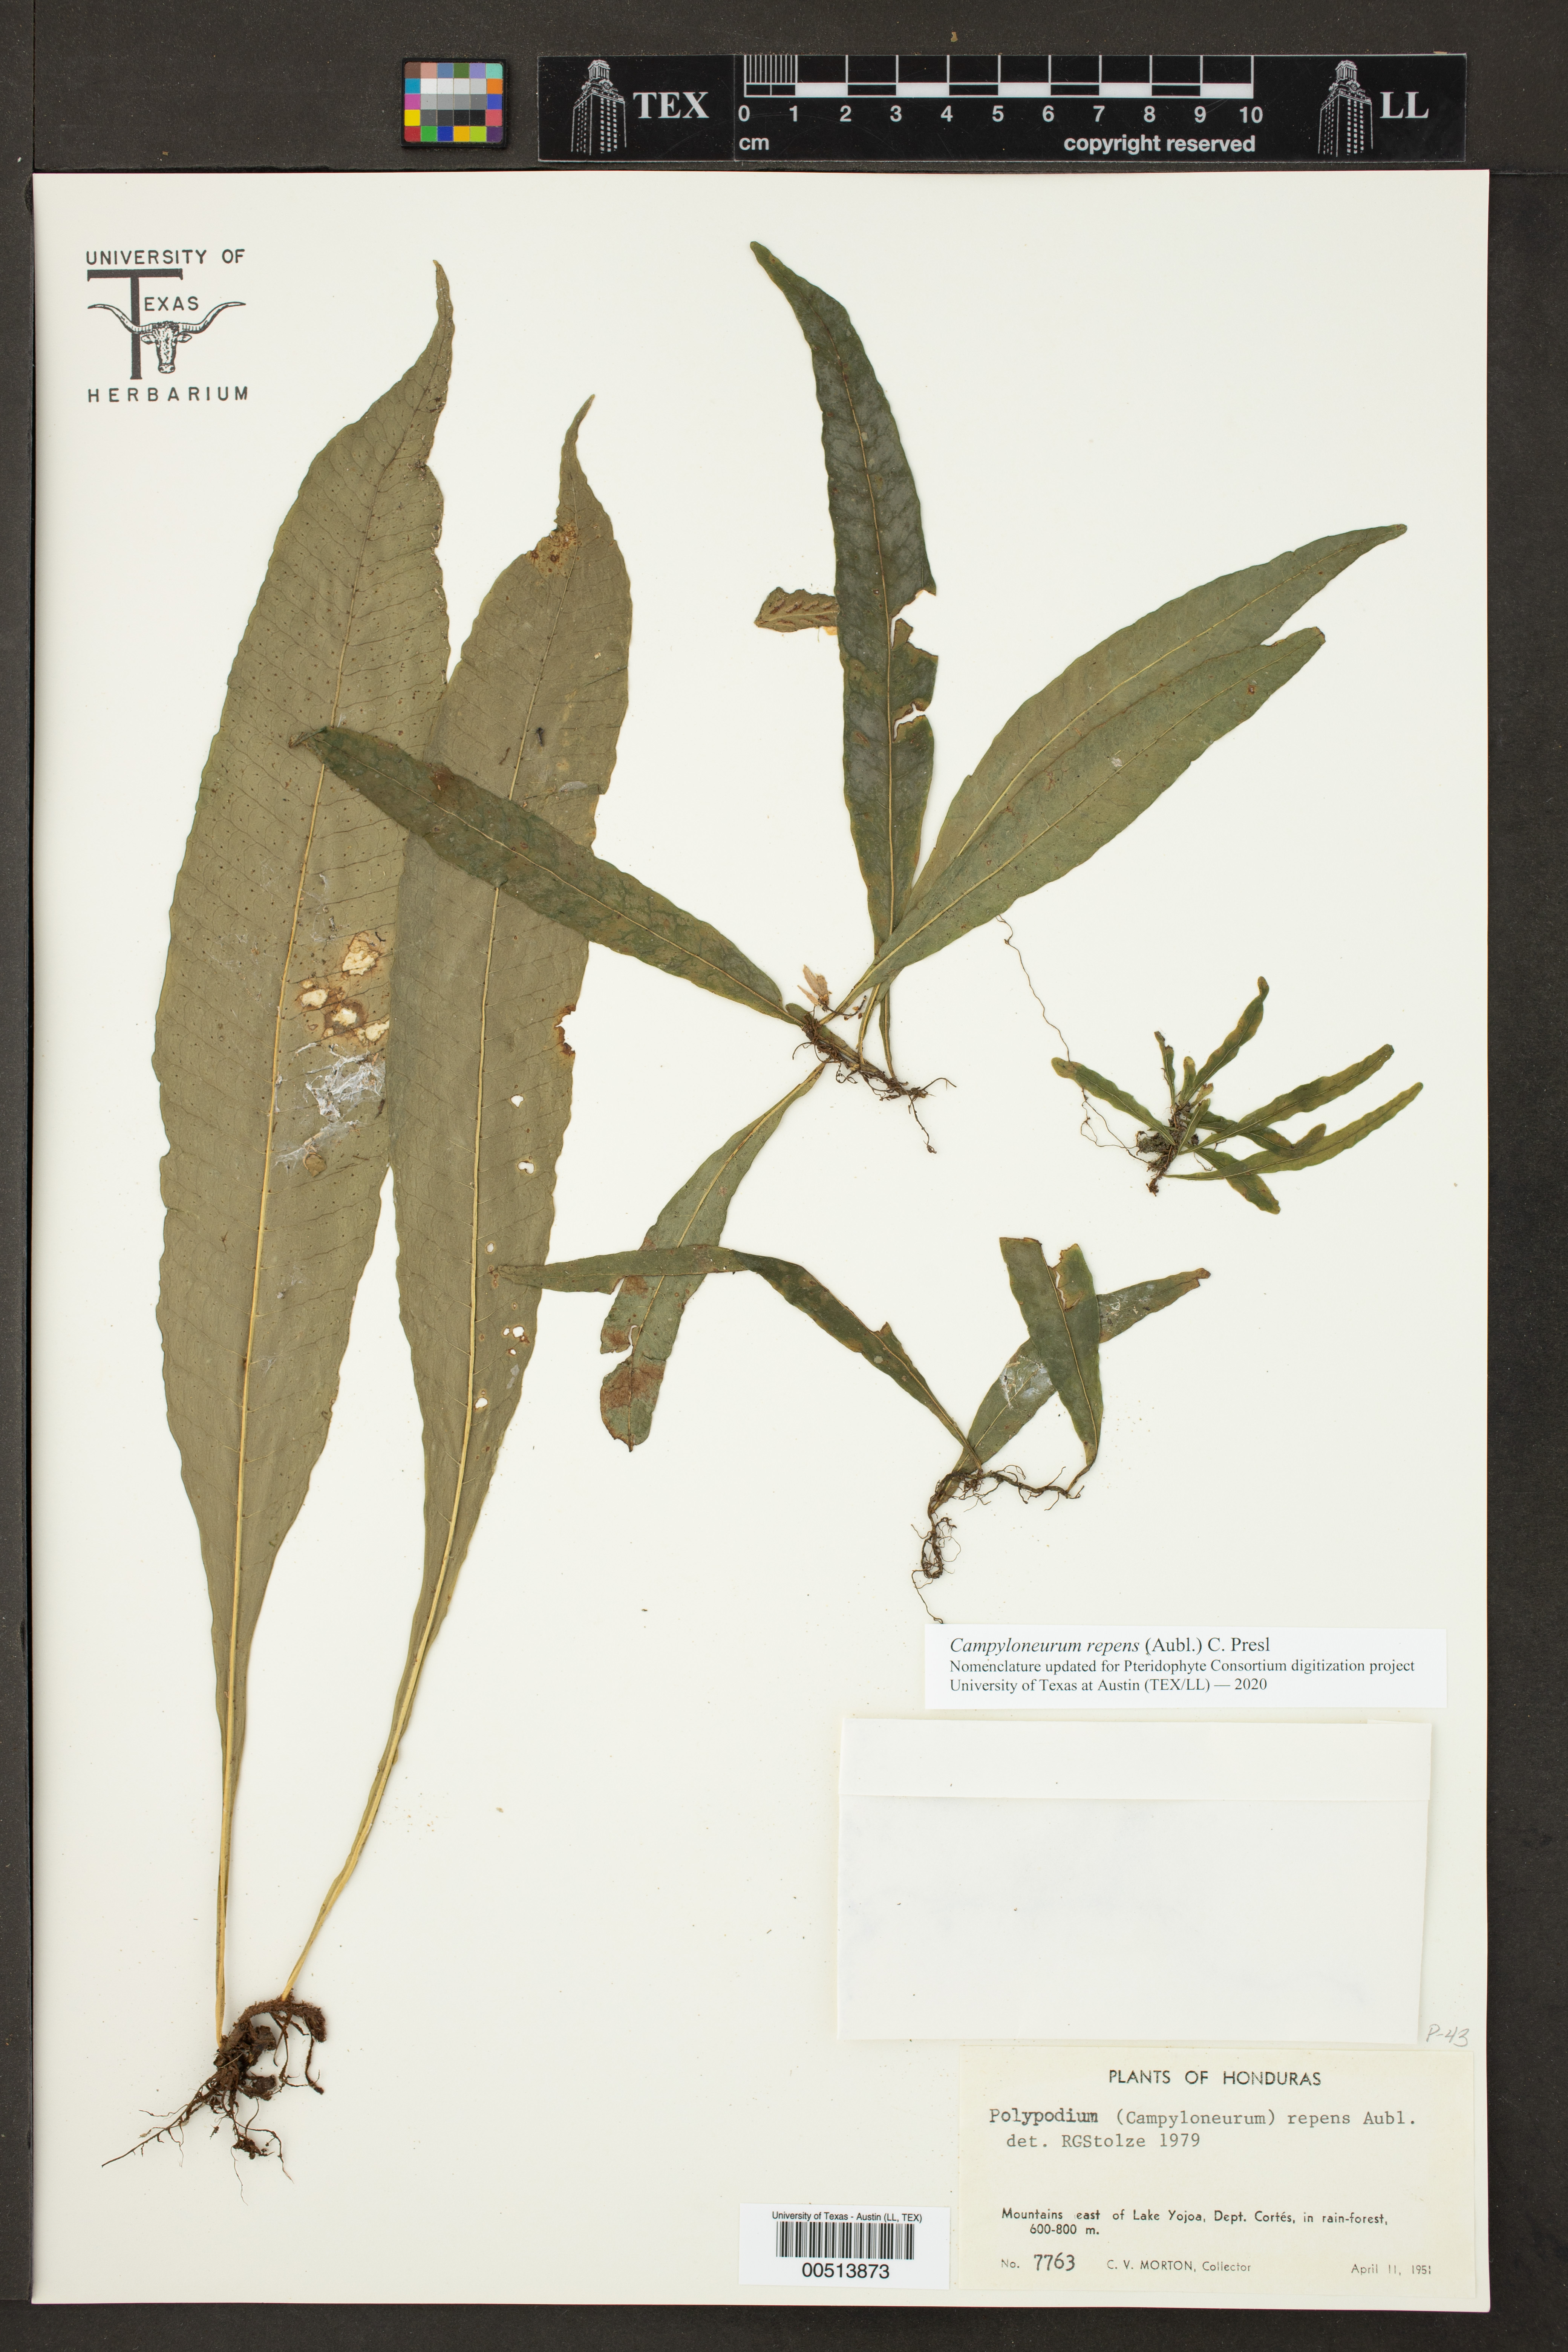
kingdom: Plantae
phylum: Tracheophyta
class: Polypodiopsida
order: Polypodiales
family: Polypodiaceae
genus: Campyloneurum
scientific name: Campyloneurum repens
